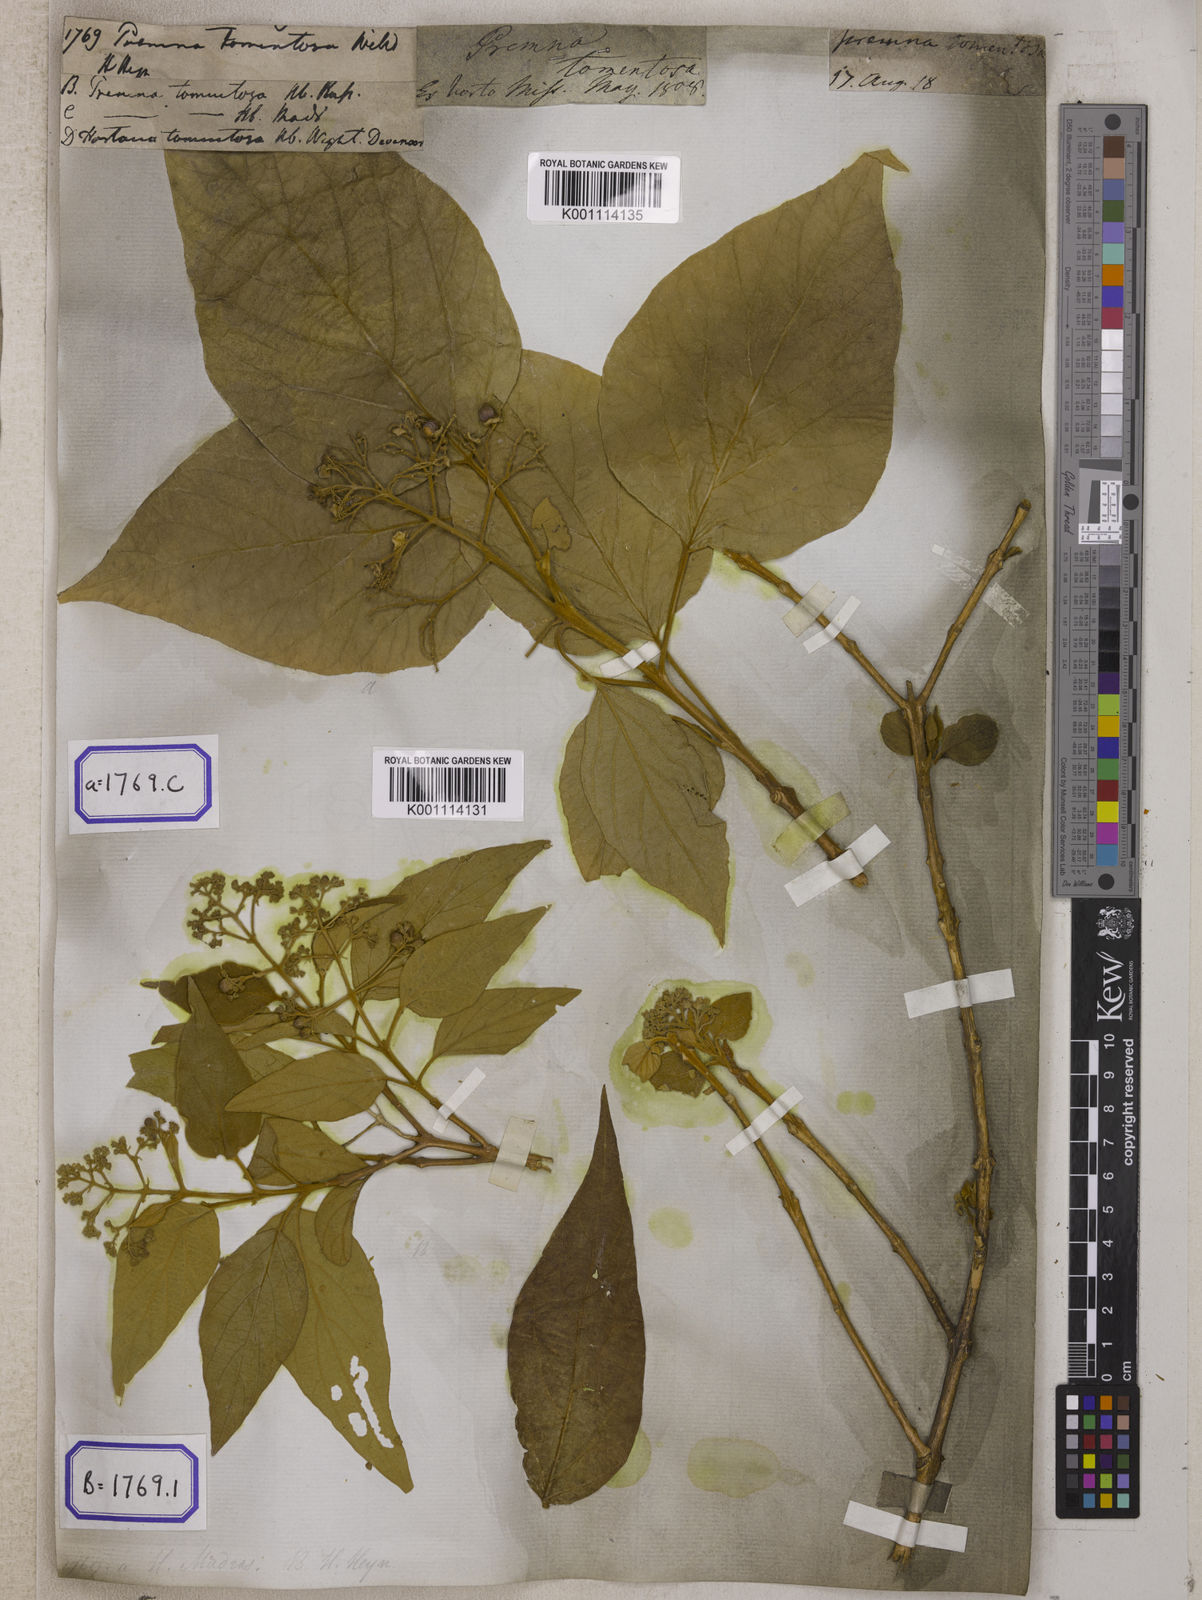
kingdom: Plantae
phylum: Tracheophyta
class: Magnoliopsida
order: Lamiales
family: Lamiaceae
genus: Premna
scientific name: Premna tomentosa
